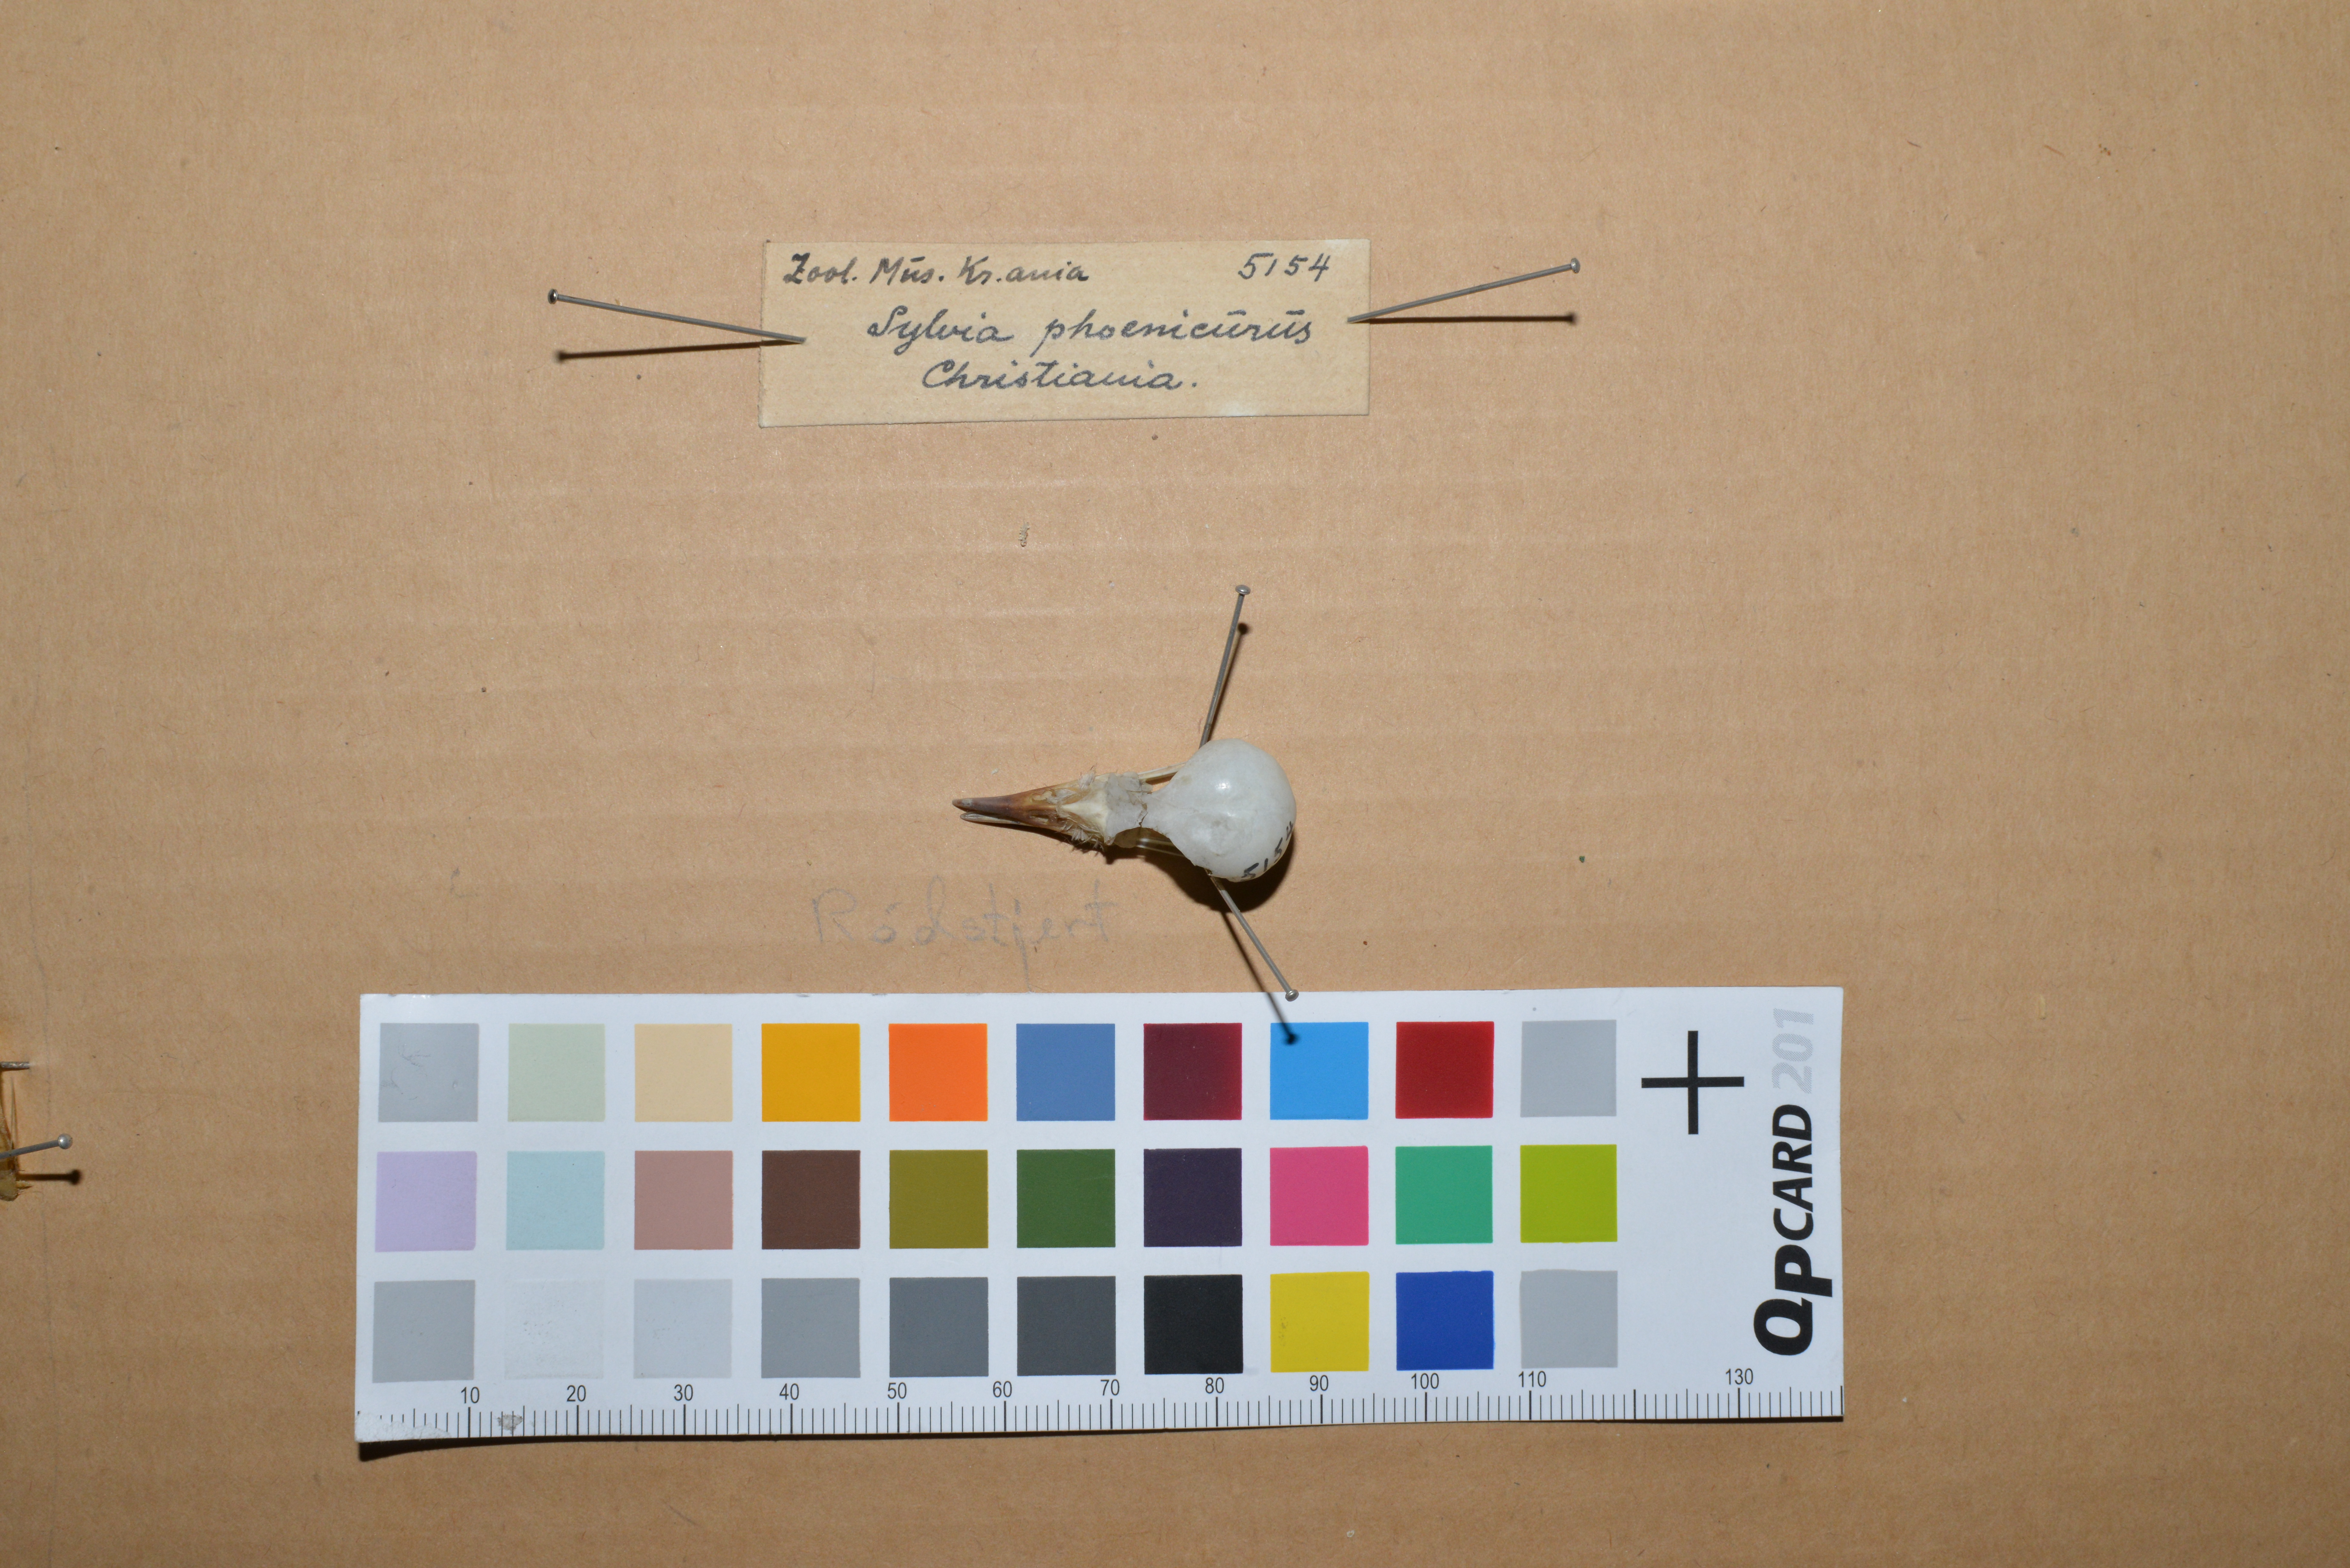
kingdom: Animalia
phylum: Chordata
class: Aves
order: Passeriformes
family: Muscicapidae
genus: Phoenicurus
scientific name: Phoenicurus phoenicurus
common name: Common redstart
